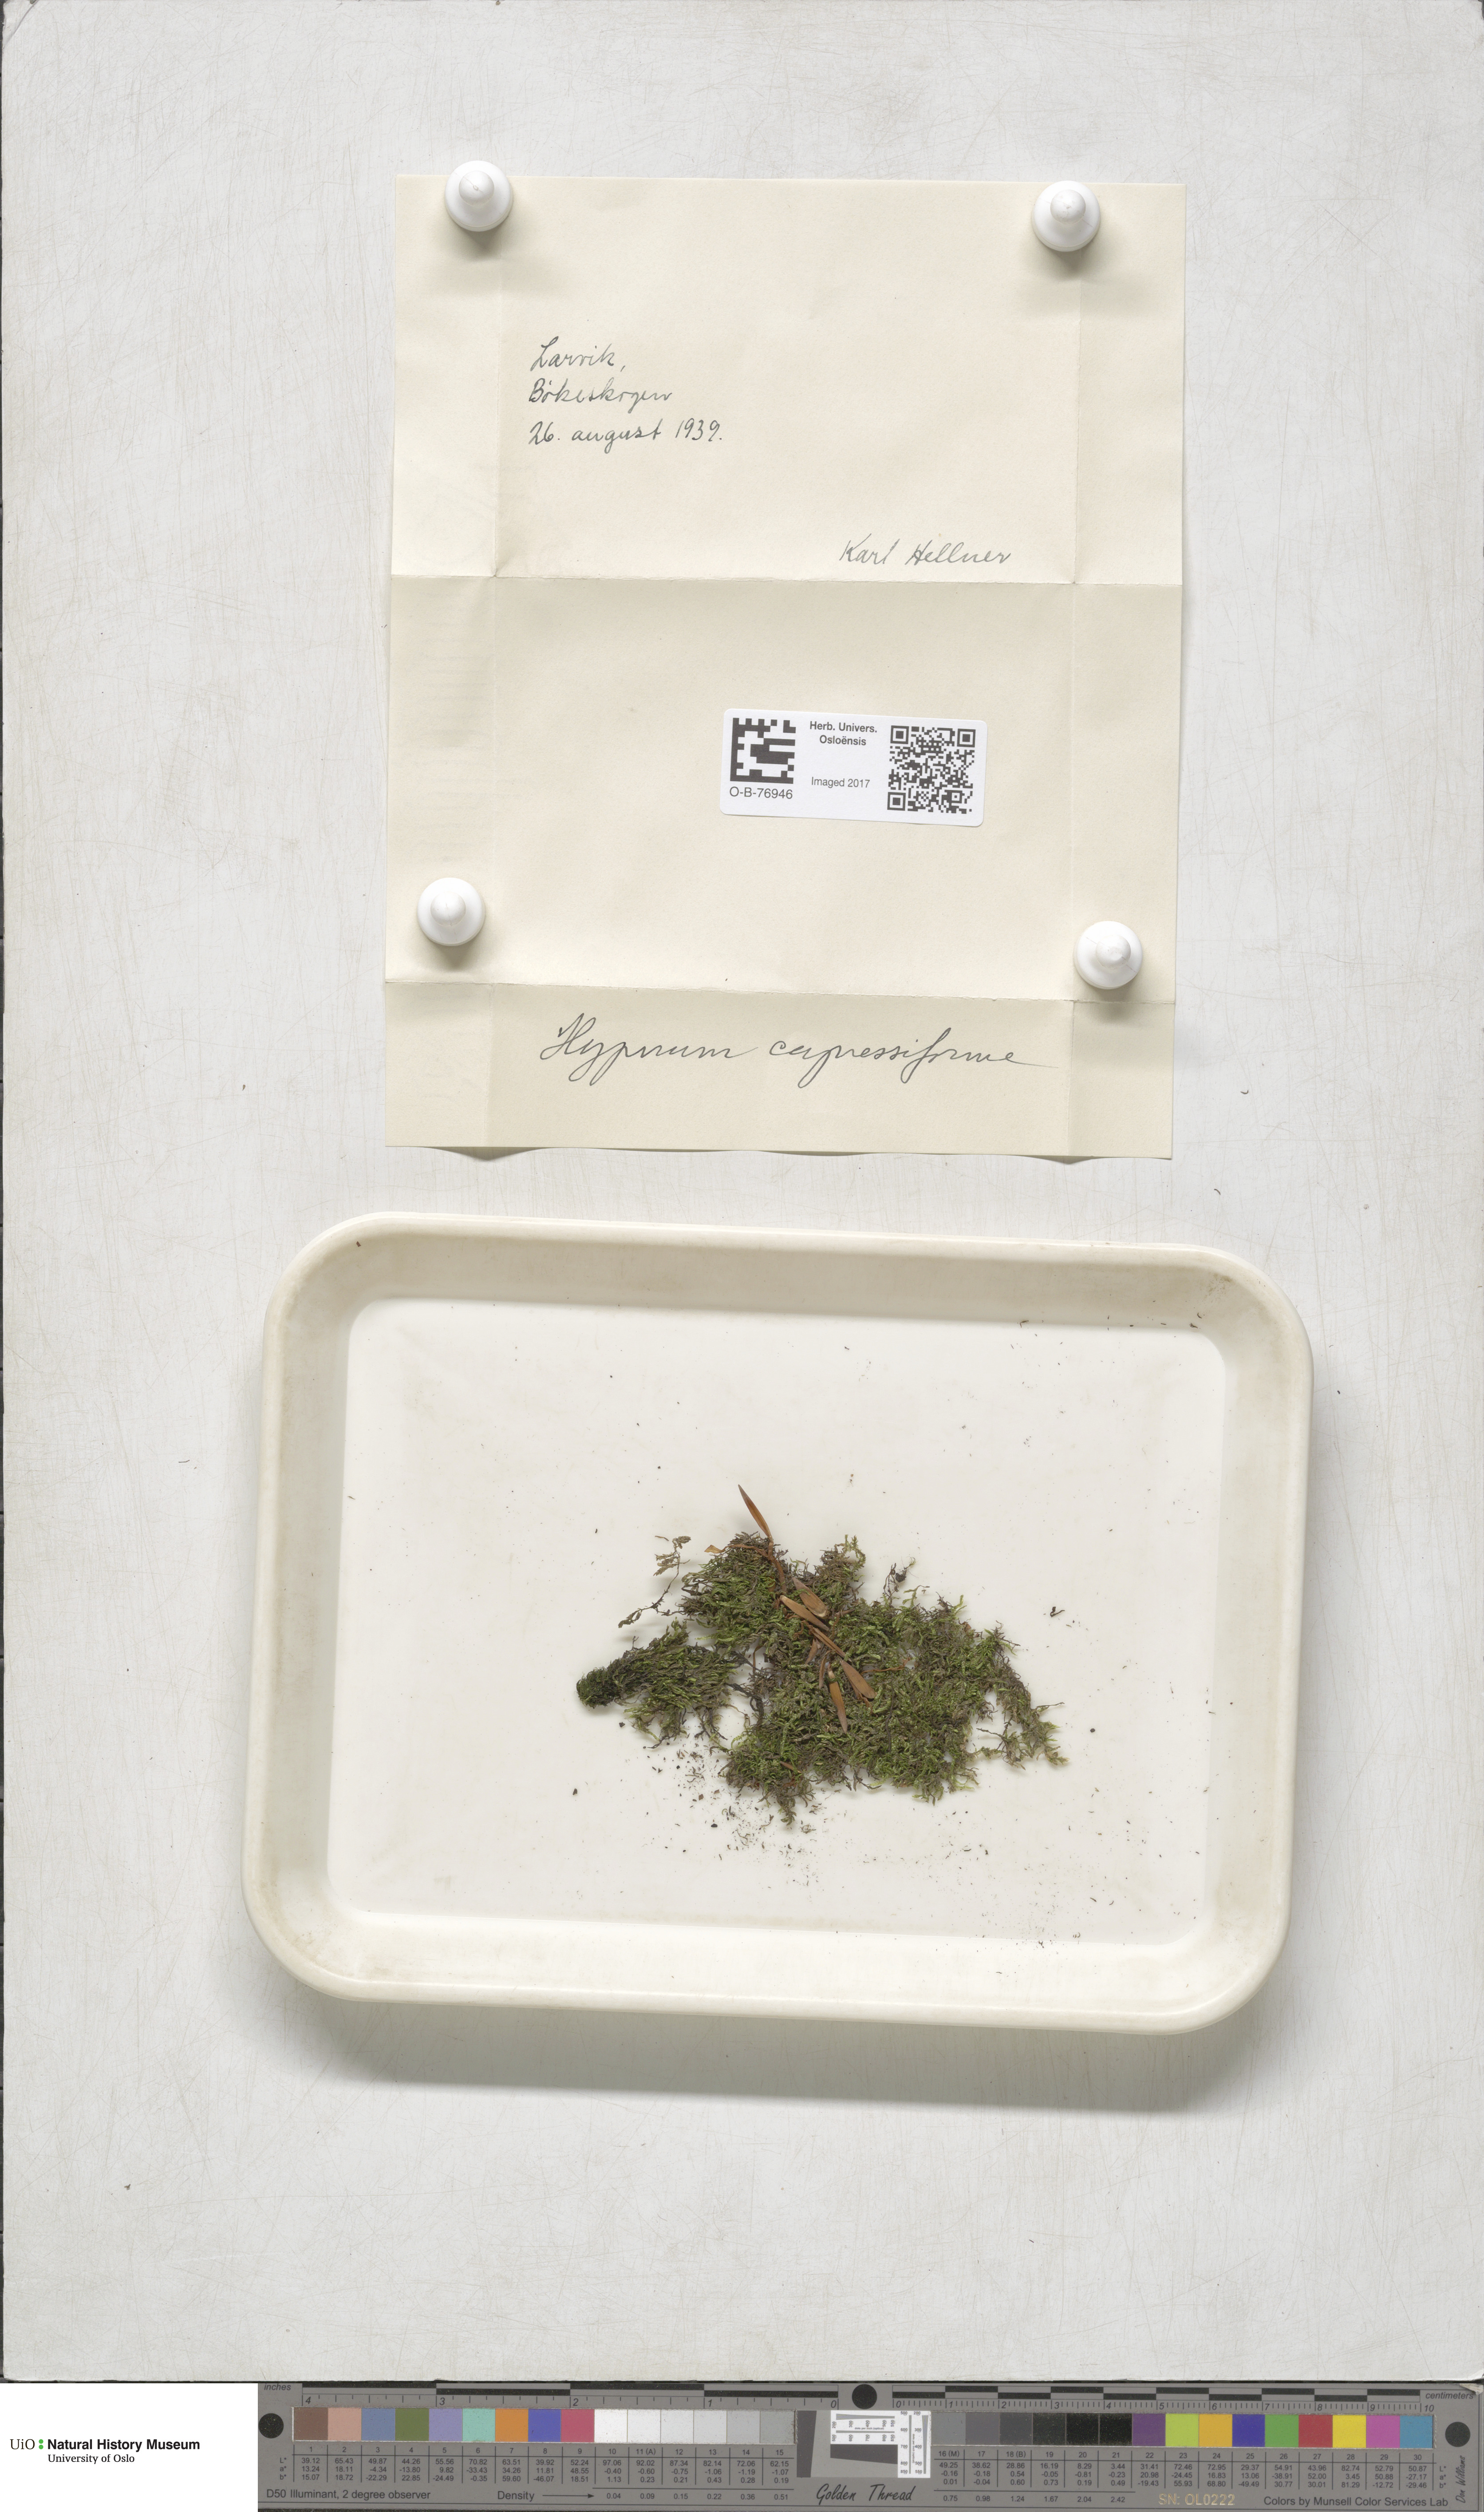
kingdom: Plantae
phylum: Bryophyta
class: Bryopsida
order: Hypnales
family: Hypnaceae
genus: Hypnum
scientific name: Hypnum cupressiforme
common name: Cypress-leaved plait-moss
